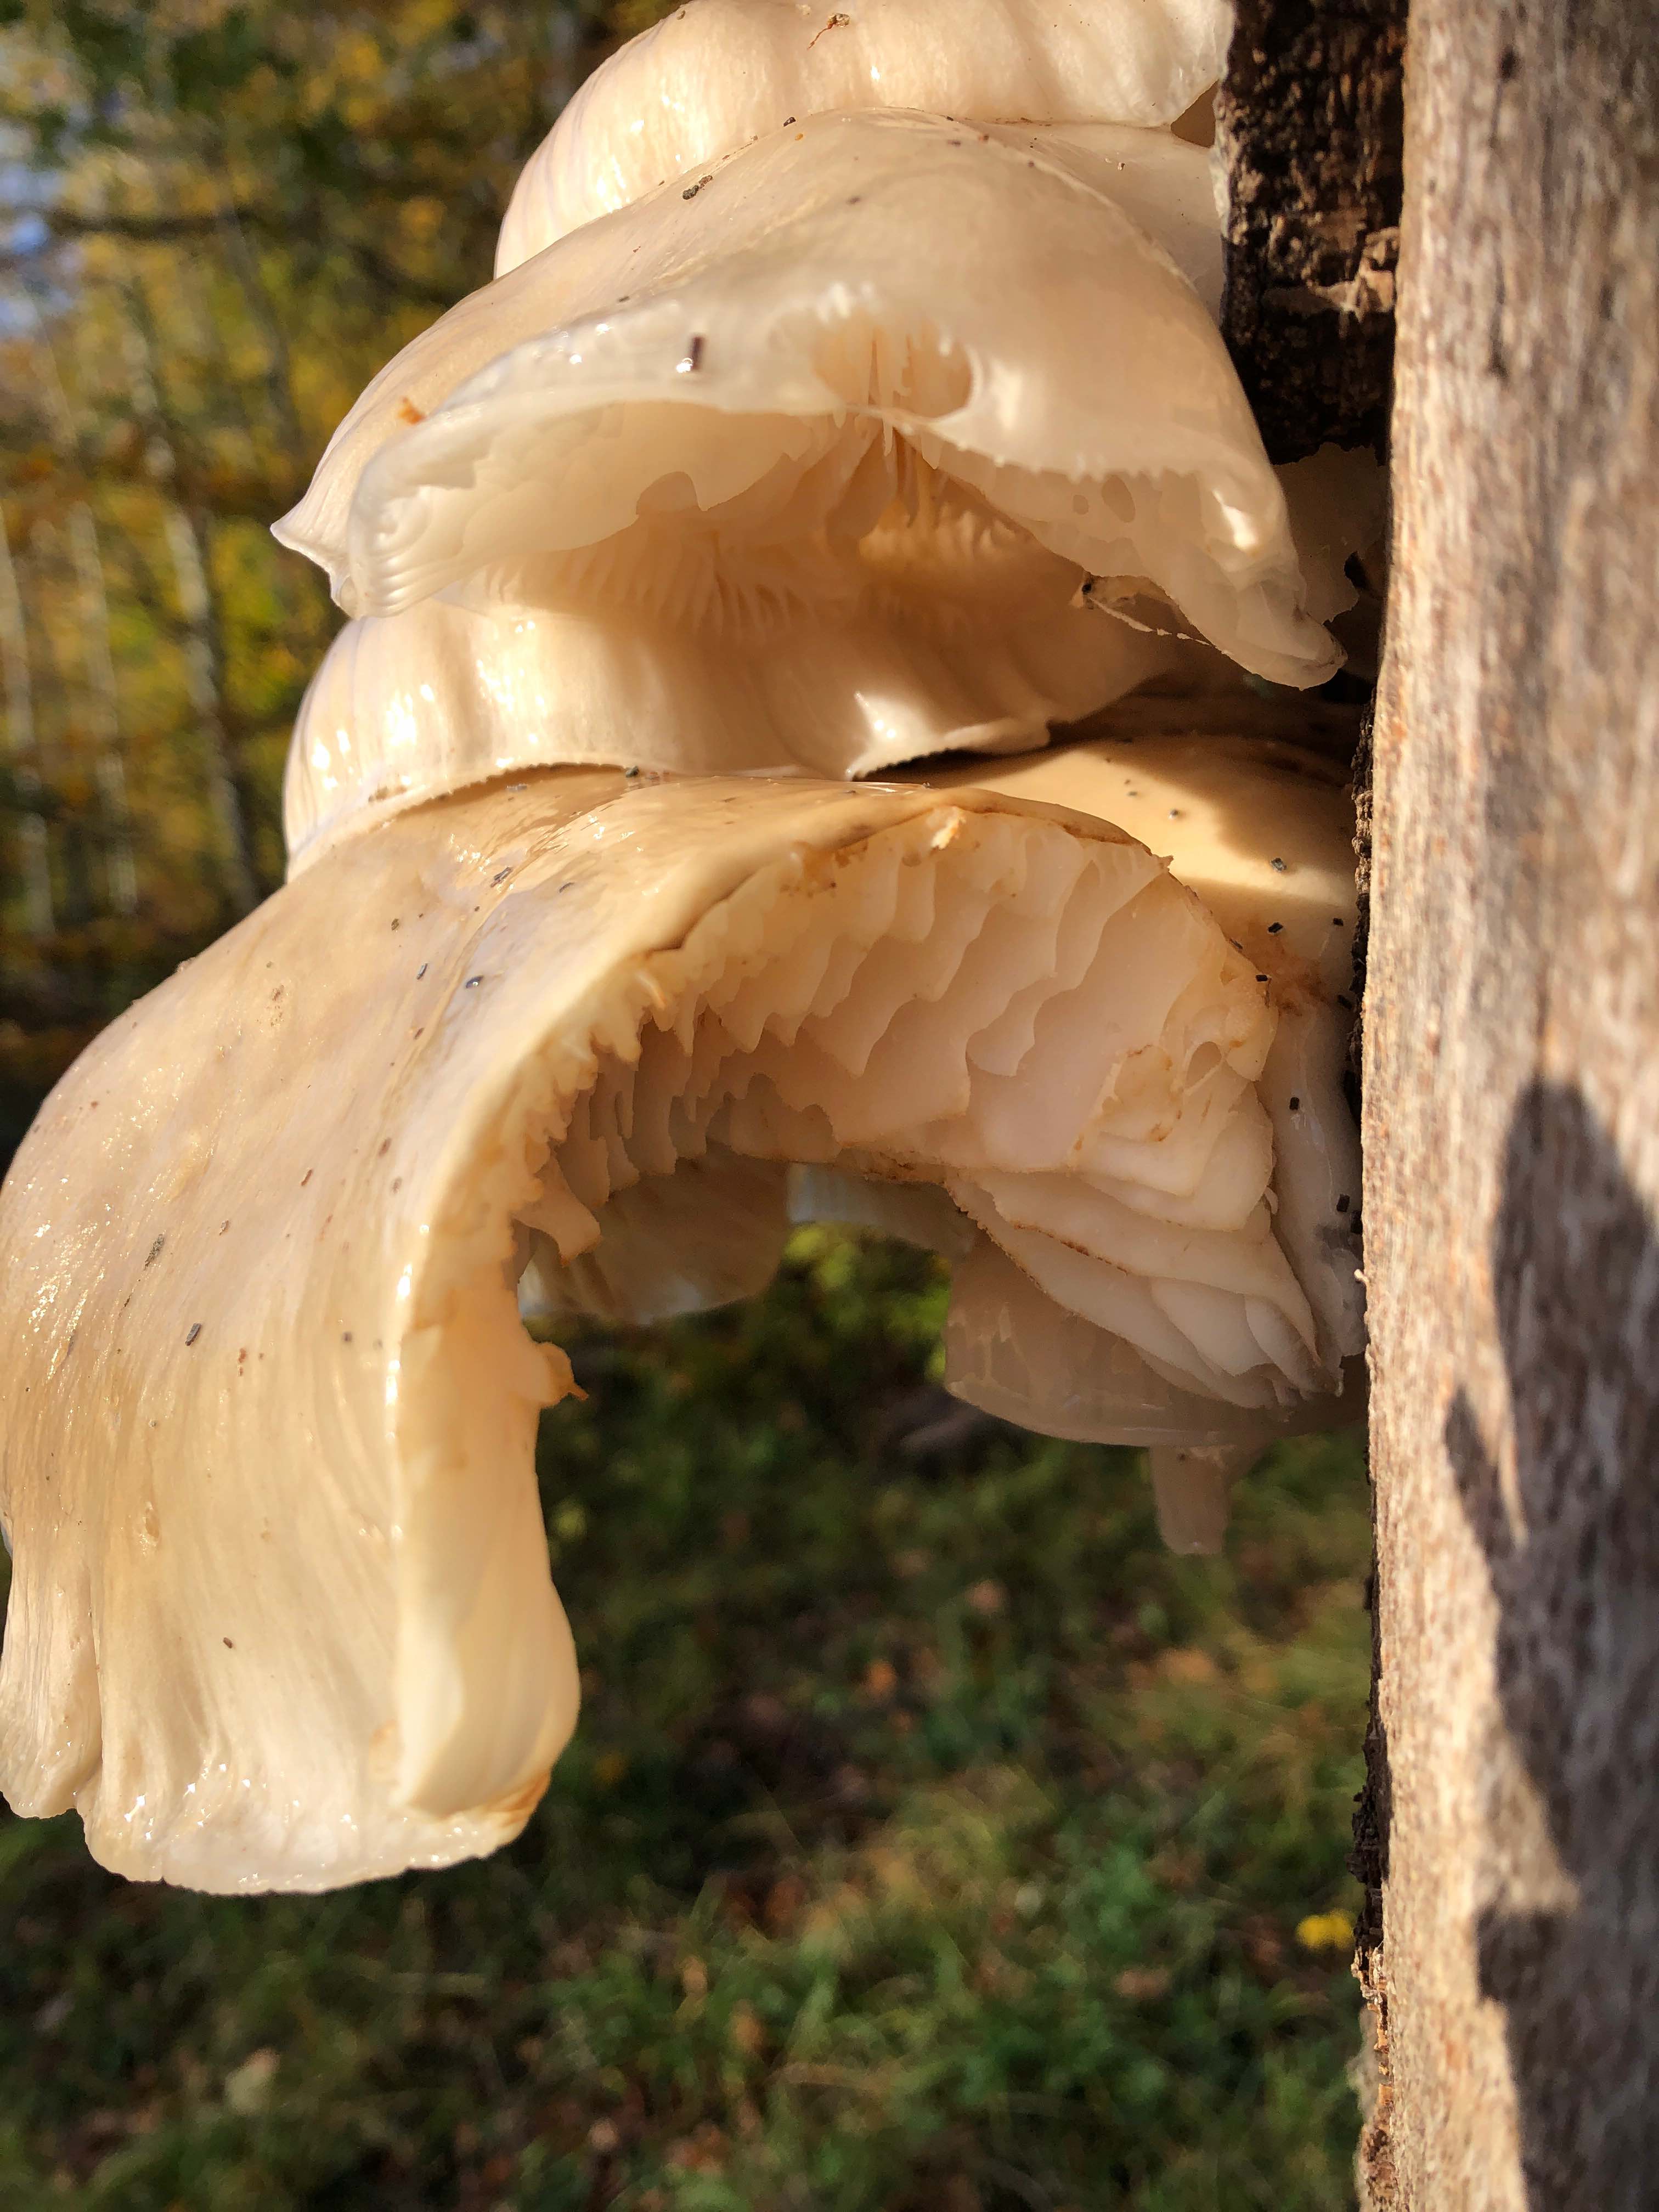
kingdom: Fungi
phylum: Basidiomycota
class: Agaricomycetes
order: Agaricales
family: Physalacriaceae
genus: Mucidula
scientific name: Mucidula mucida
